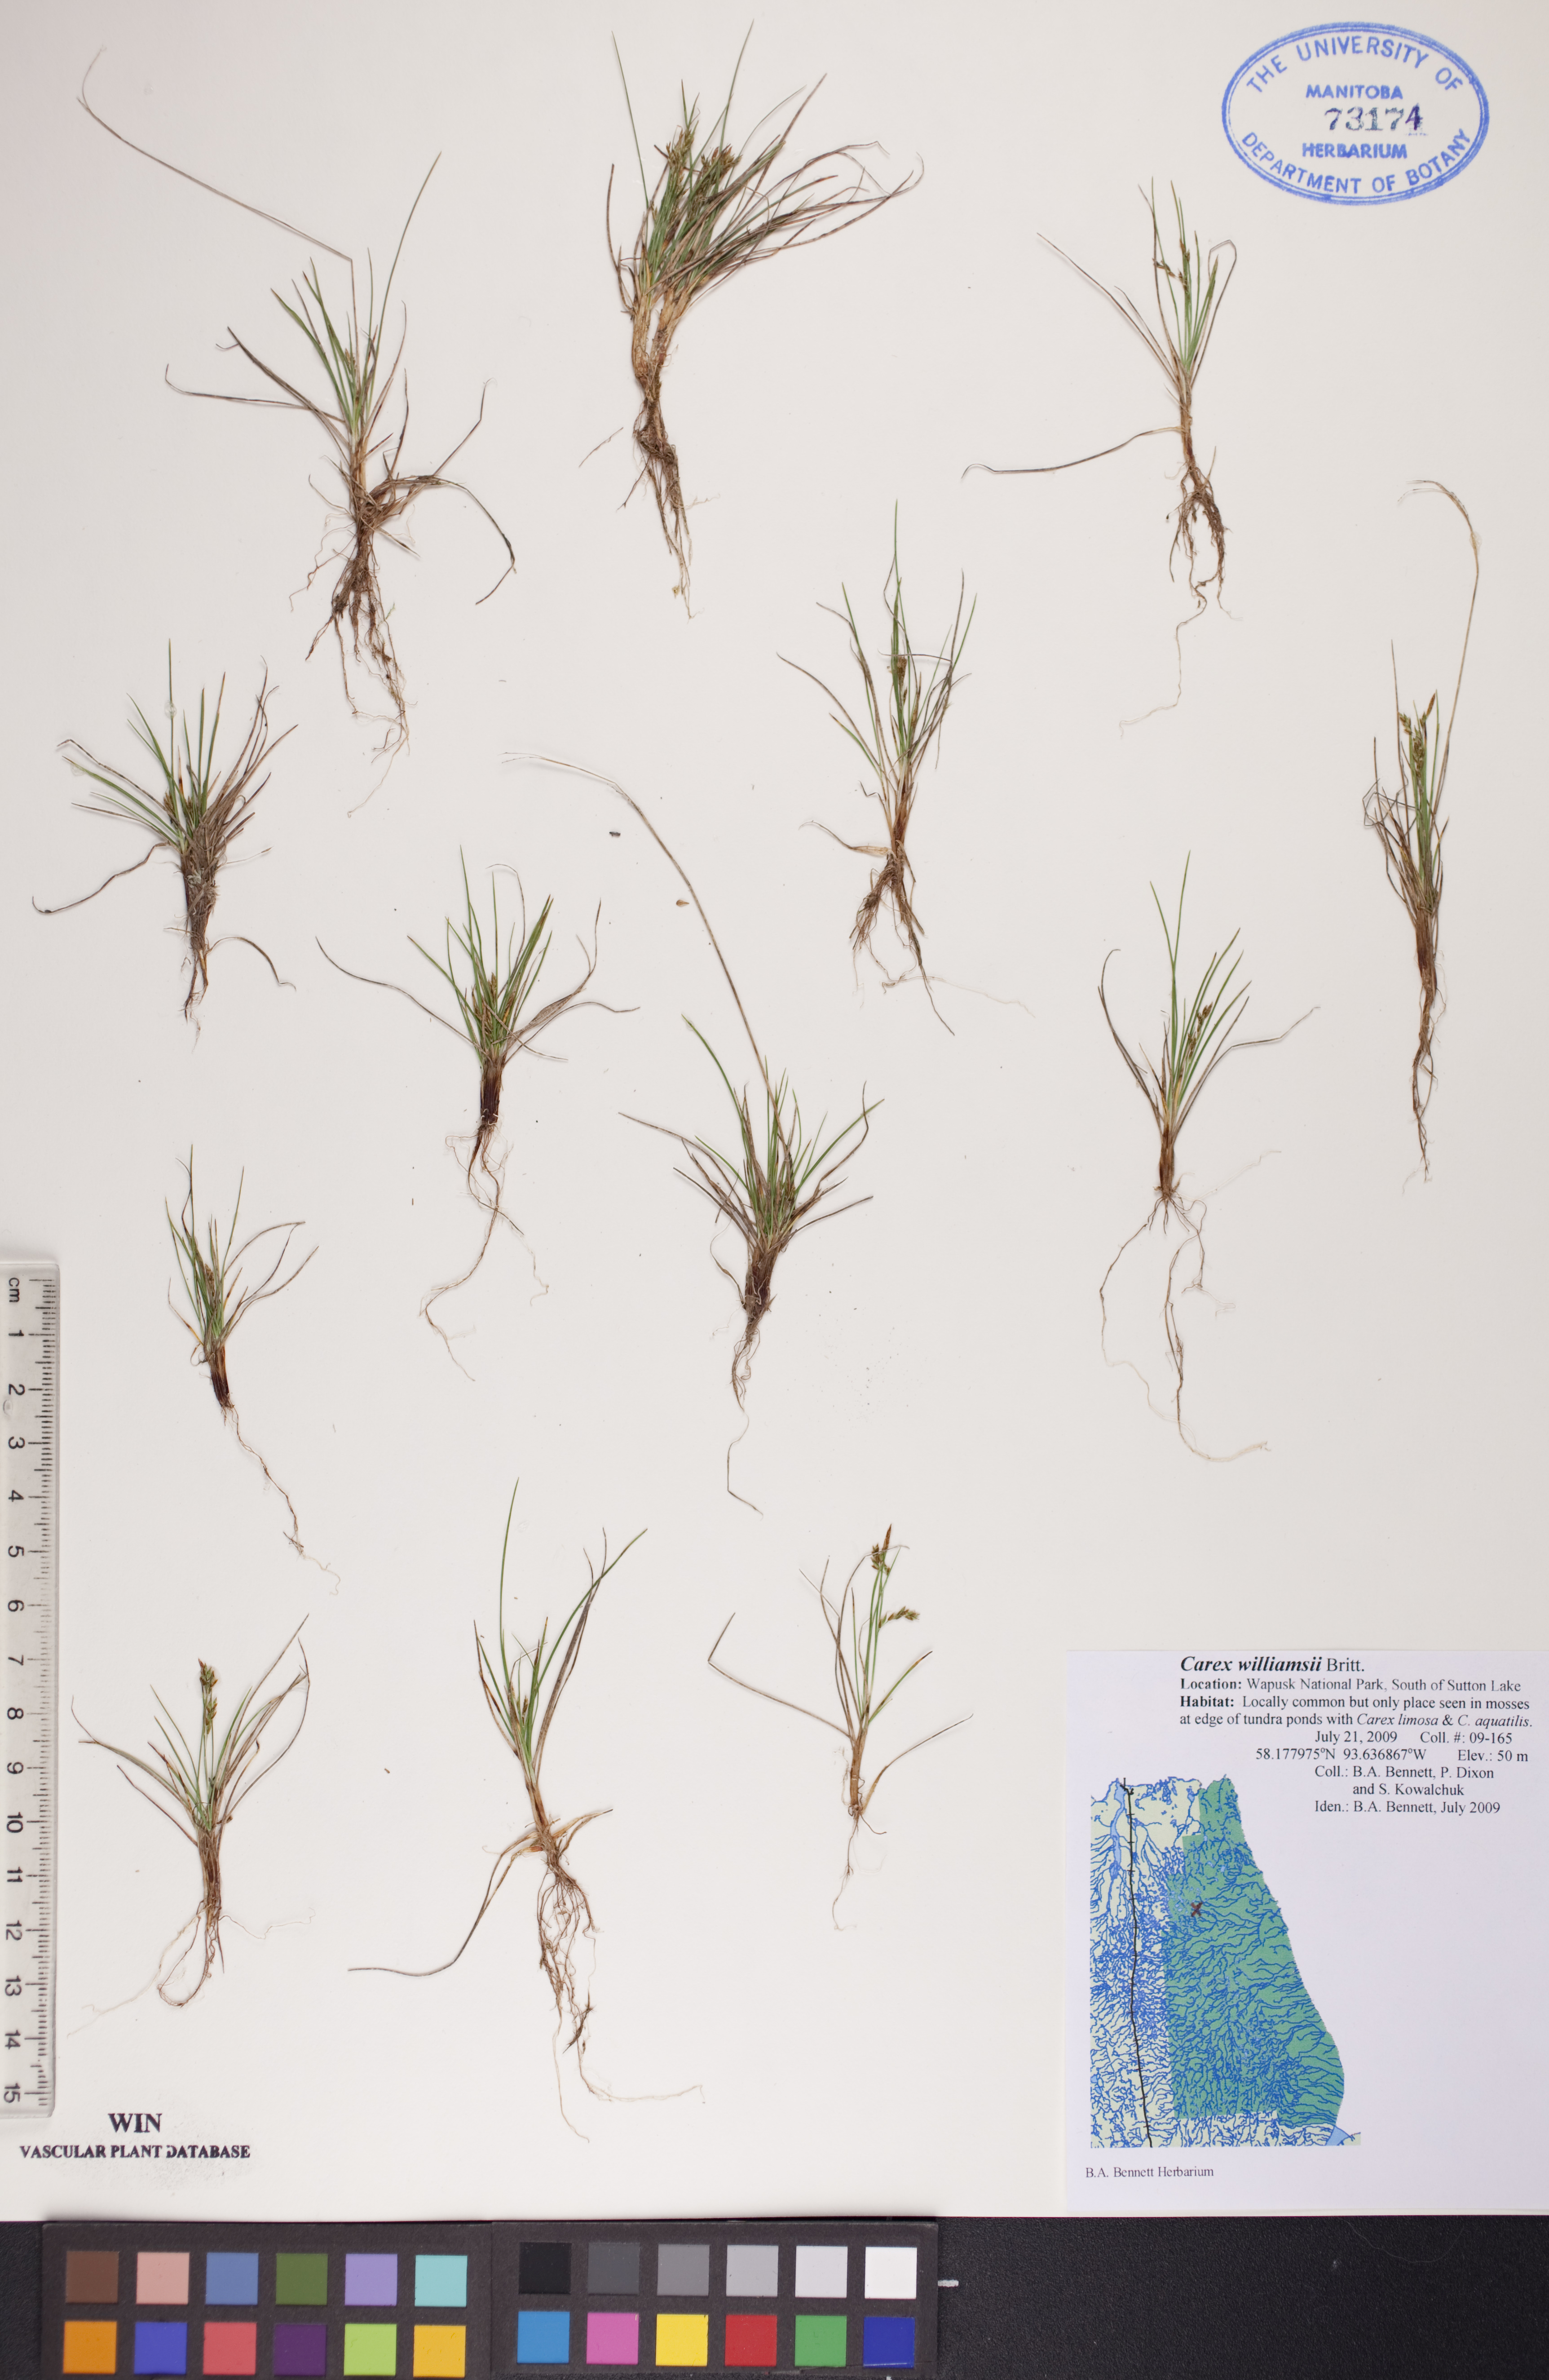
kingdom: Plantae
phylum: Tracheophyta
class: Liliopsida
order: Poales
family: Cyperaceae
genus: Carex
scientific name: Carex williamsii
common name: Williams' sedge
